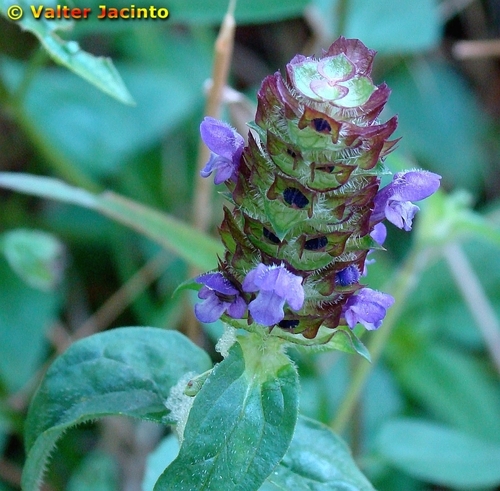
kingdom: Plantae
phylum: Tracheophyta
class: Magnoliopsida
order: Lamiales
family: Lamiaceae
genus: Prunella
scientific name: Prunella vulgaris
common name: Heal-all
